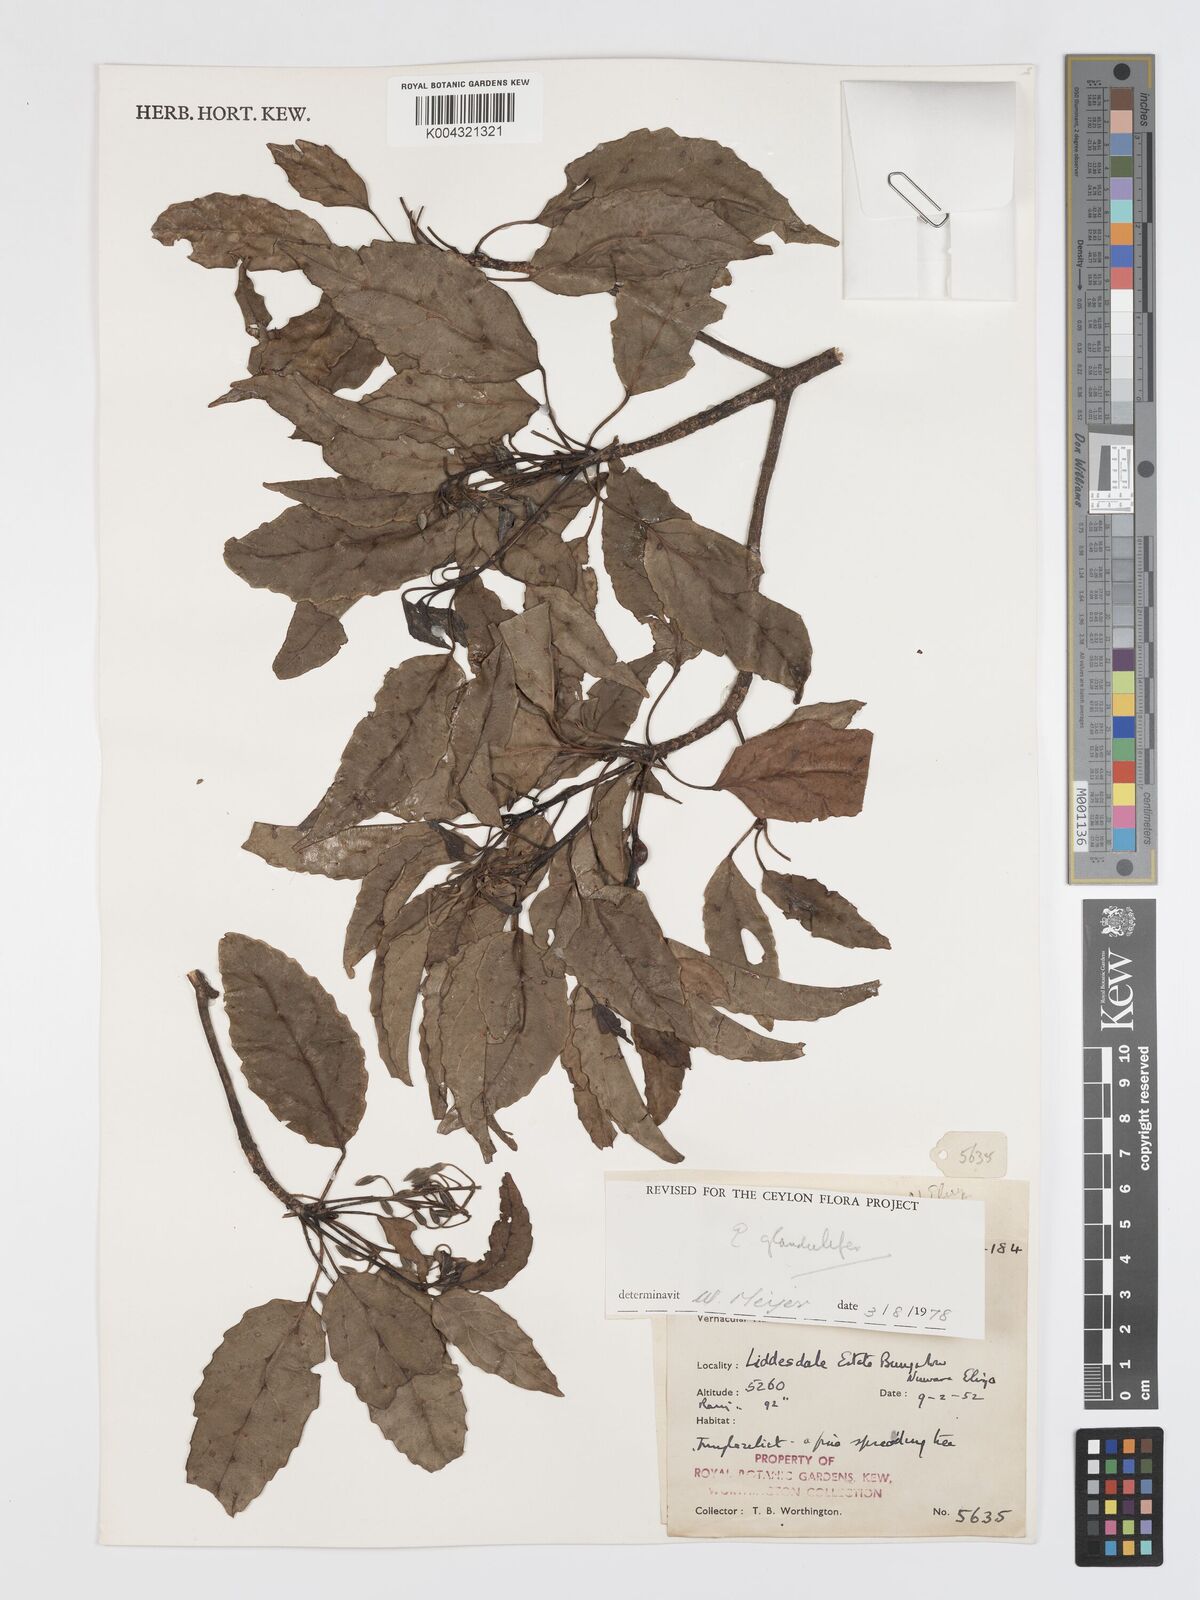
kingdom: Plantae
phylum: Tracheophyta
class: Magnoliopsida
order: Oxalidales
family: Elaeocarpaceae
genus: Elaeocarpus
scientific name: Elaeocarpus glandulifer
